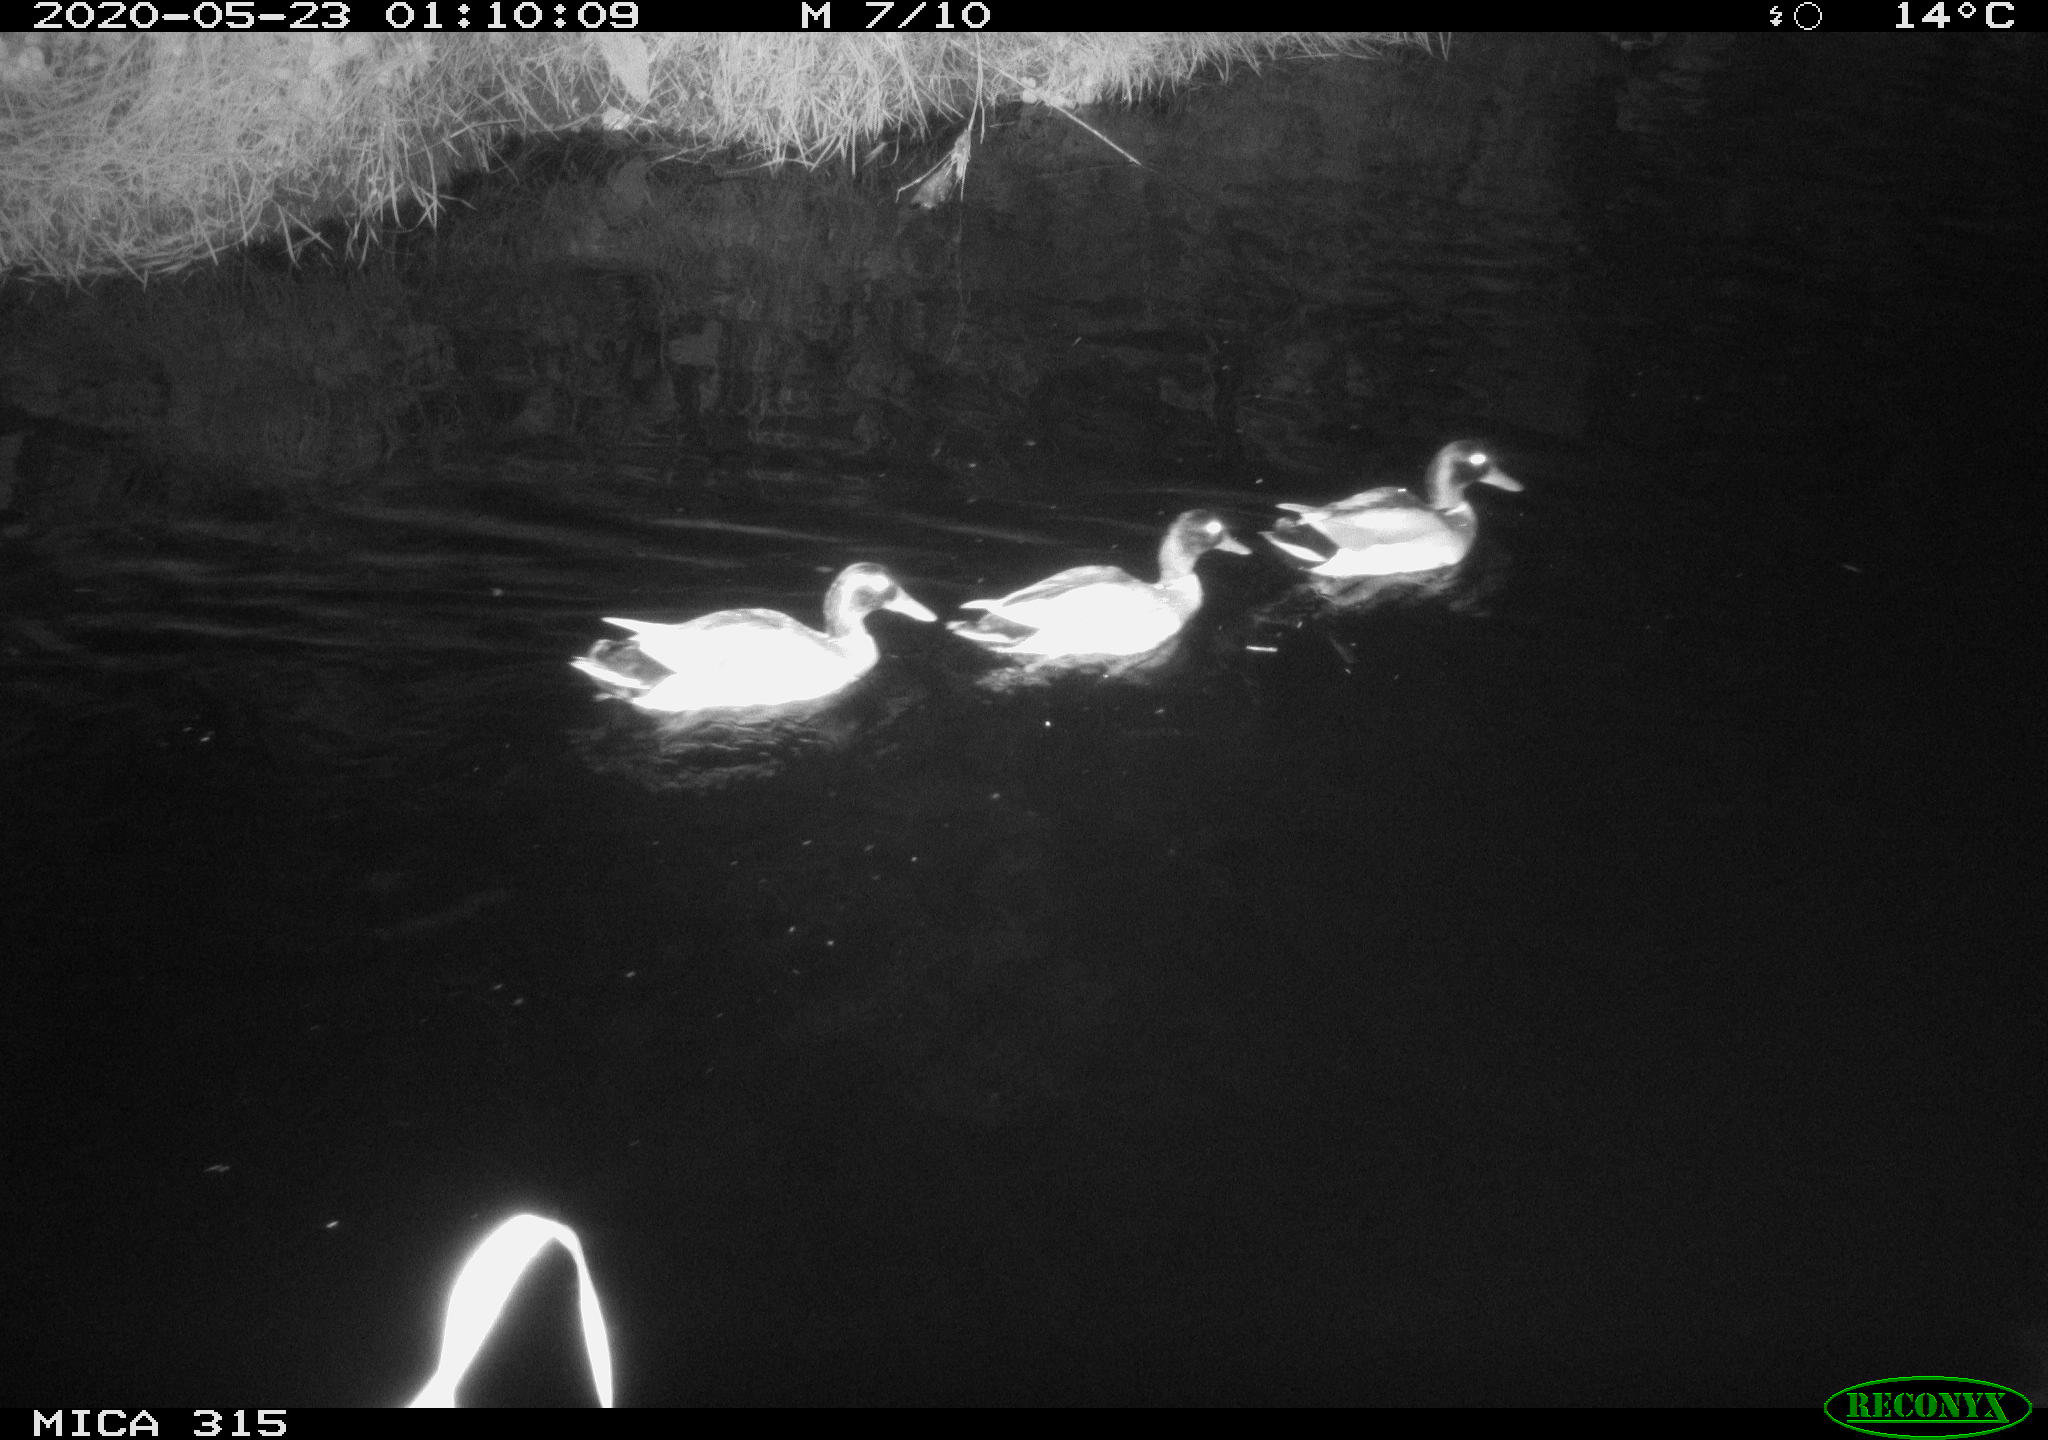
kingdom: Animalia
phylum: Chordata
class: Aves
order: Anseriformes
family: Anatidae
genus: Anas
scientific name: Anas platyrhynchos
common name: Mallard
